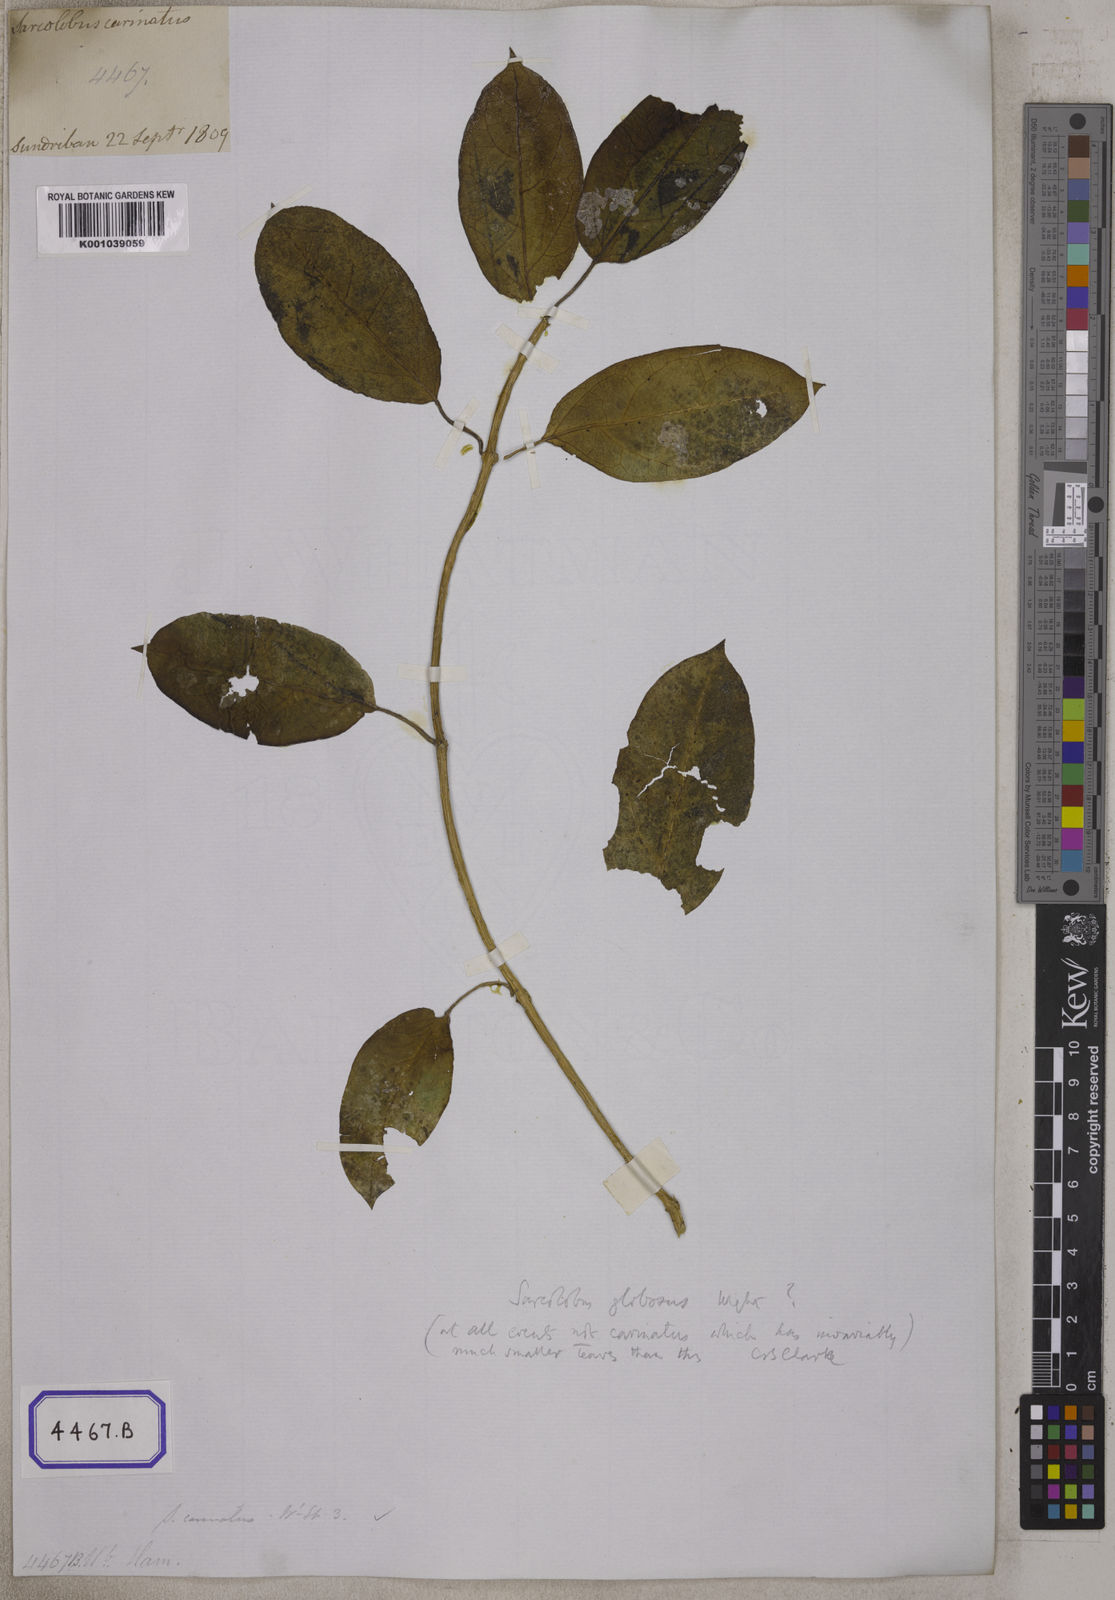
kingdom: Plantae
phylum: Tracheophyta
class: Magnoliopsida
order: Gentianales
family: Apocynaceae
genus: Sarcolobus
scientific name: Sarcolobus globosus
